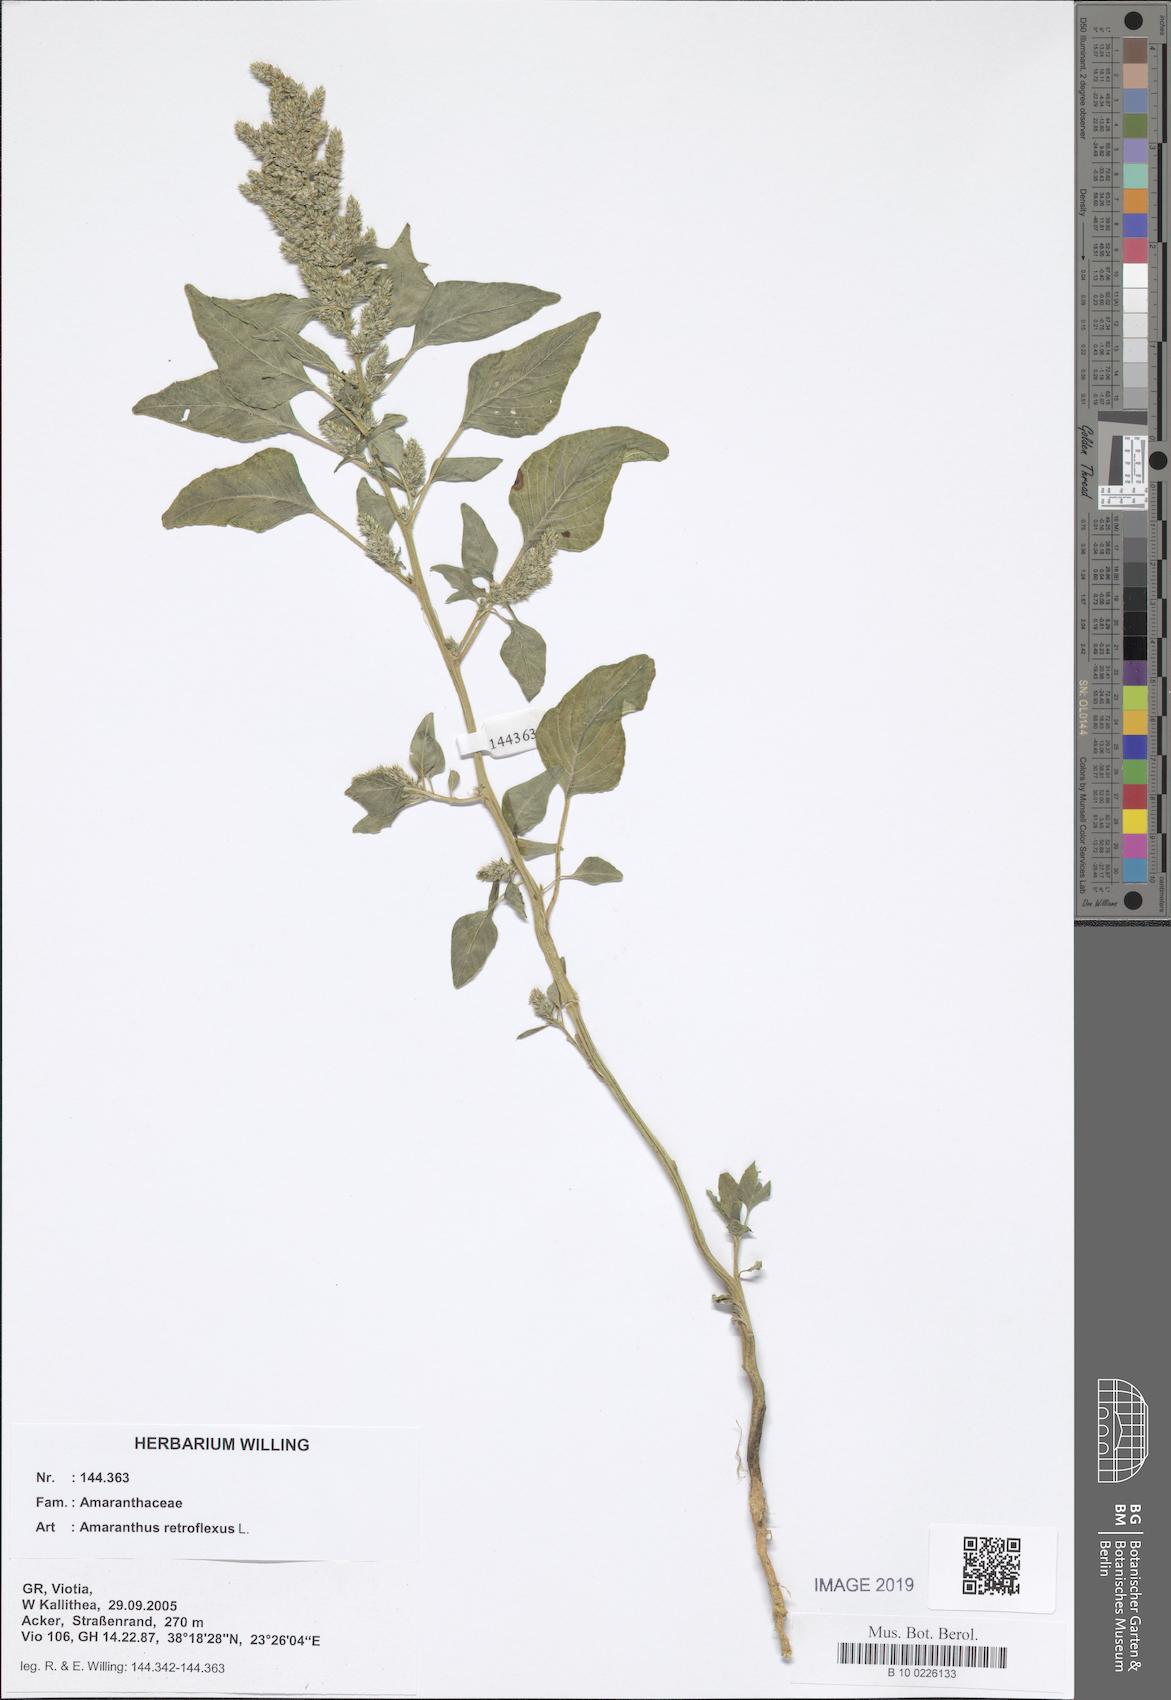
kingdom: Plantae
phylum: Tracheophyta
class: Magnoliopsida
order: Caryophyllales
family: Amaranthaceae
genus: Amaranthus
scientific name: Amaranthus retroflexus
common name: Redroot amaranth
